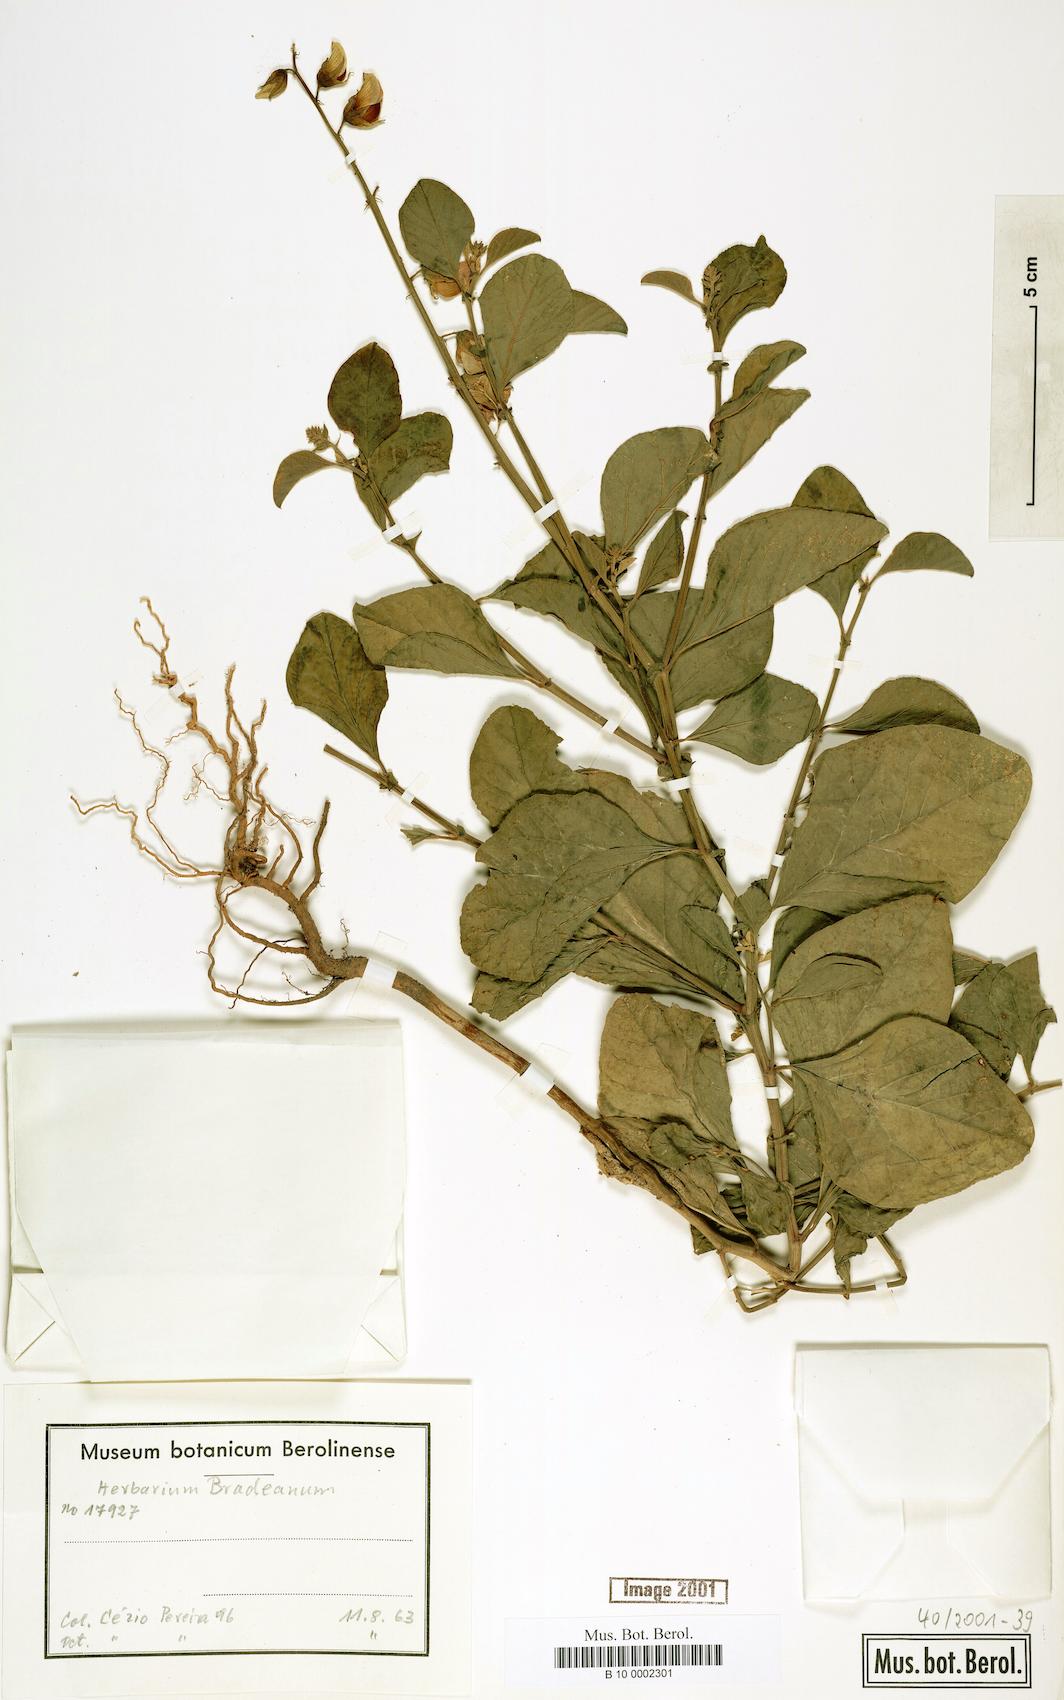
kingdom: Plantae
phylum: Tracheophyta
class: Magnoliopsida
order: Fabales
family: Fabaceae
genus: Crotalaria
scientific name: Crotalaria verrucosa
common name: Blue rattlesnake
